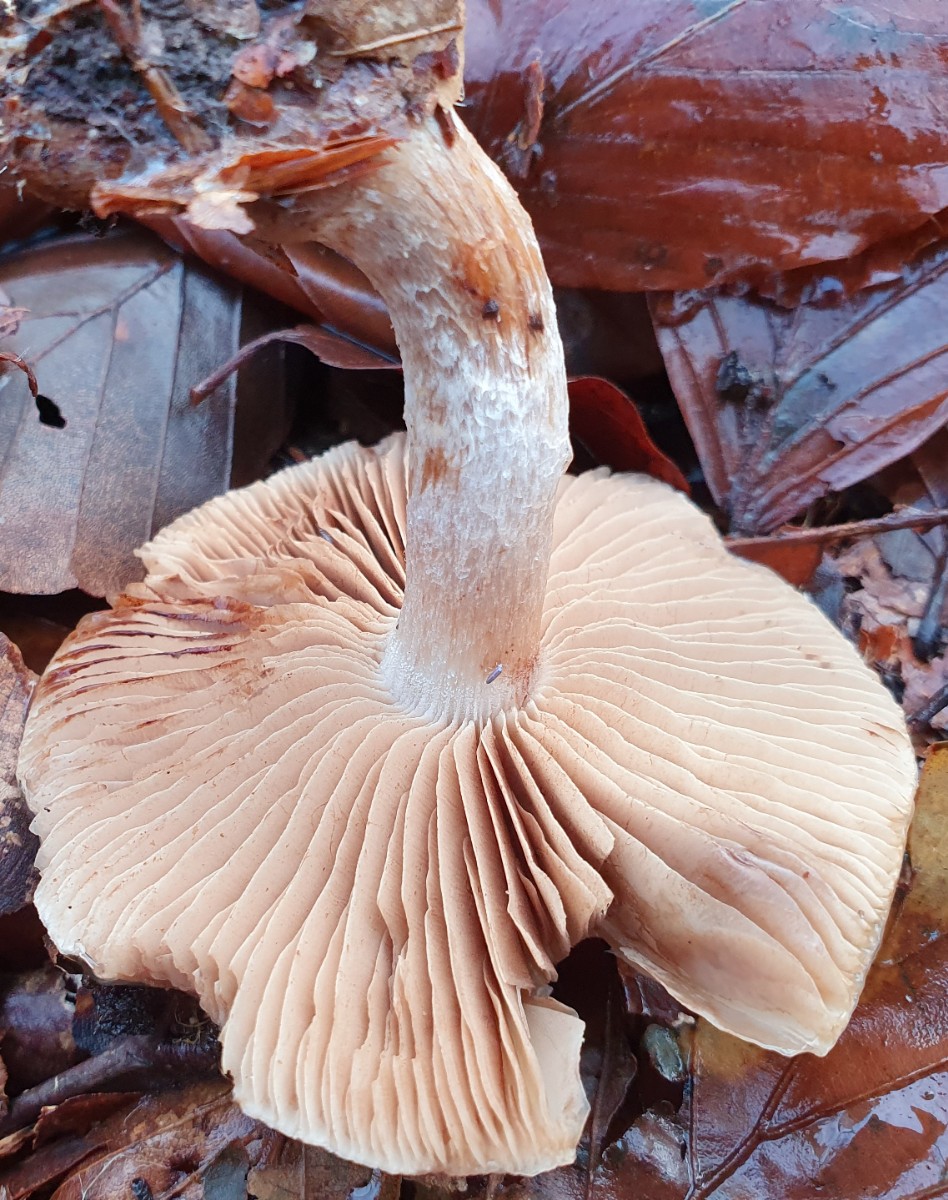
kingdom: Fungi
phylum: Basidiomycota
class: Agaricomycetes
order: Agaricales
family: Strophariaceae
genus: Pholiota
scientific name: Pholiota lenta
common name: løv-skælhat
